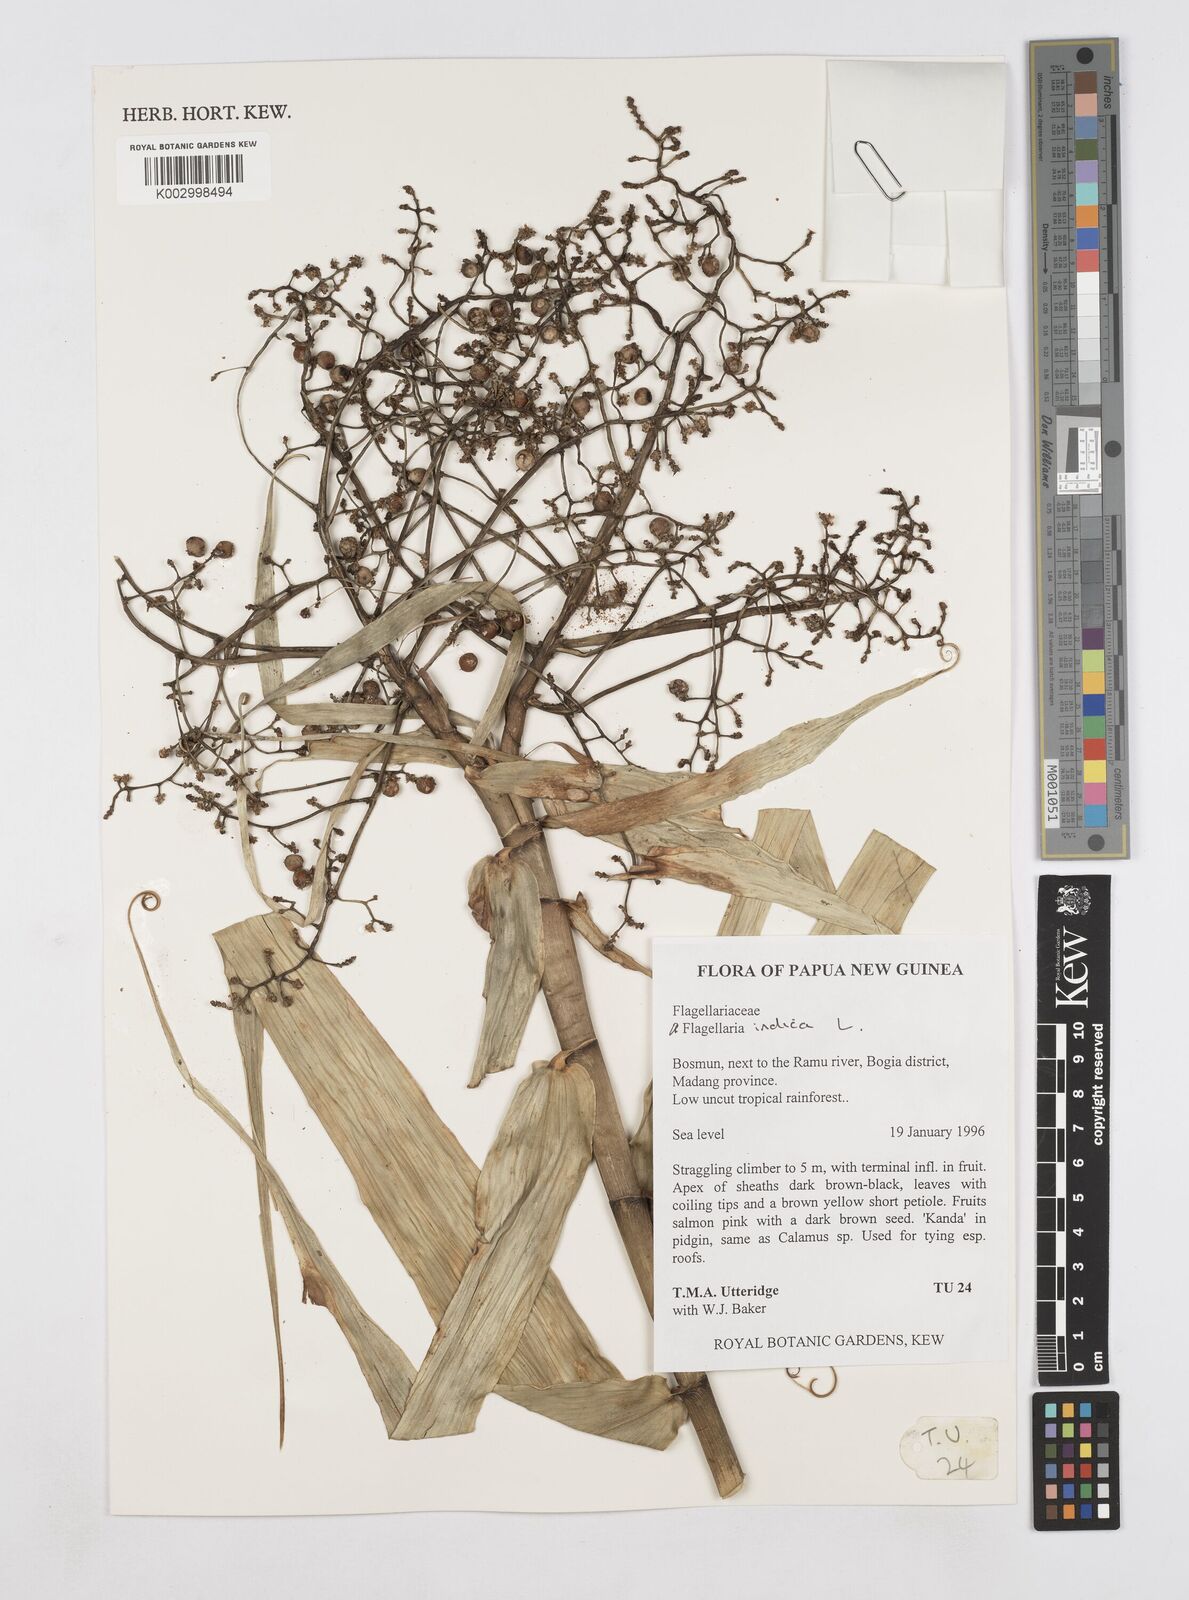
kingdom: Plantae
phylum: Tracheophyta
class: Liliopsida
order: Poales
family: Flagellariaceae
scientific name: Flagellariaceae
